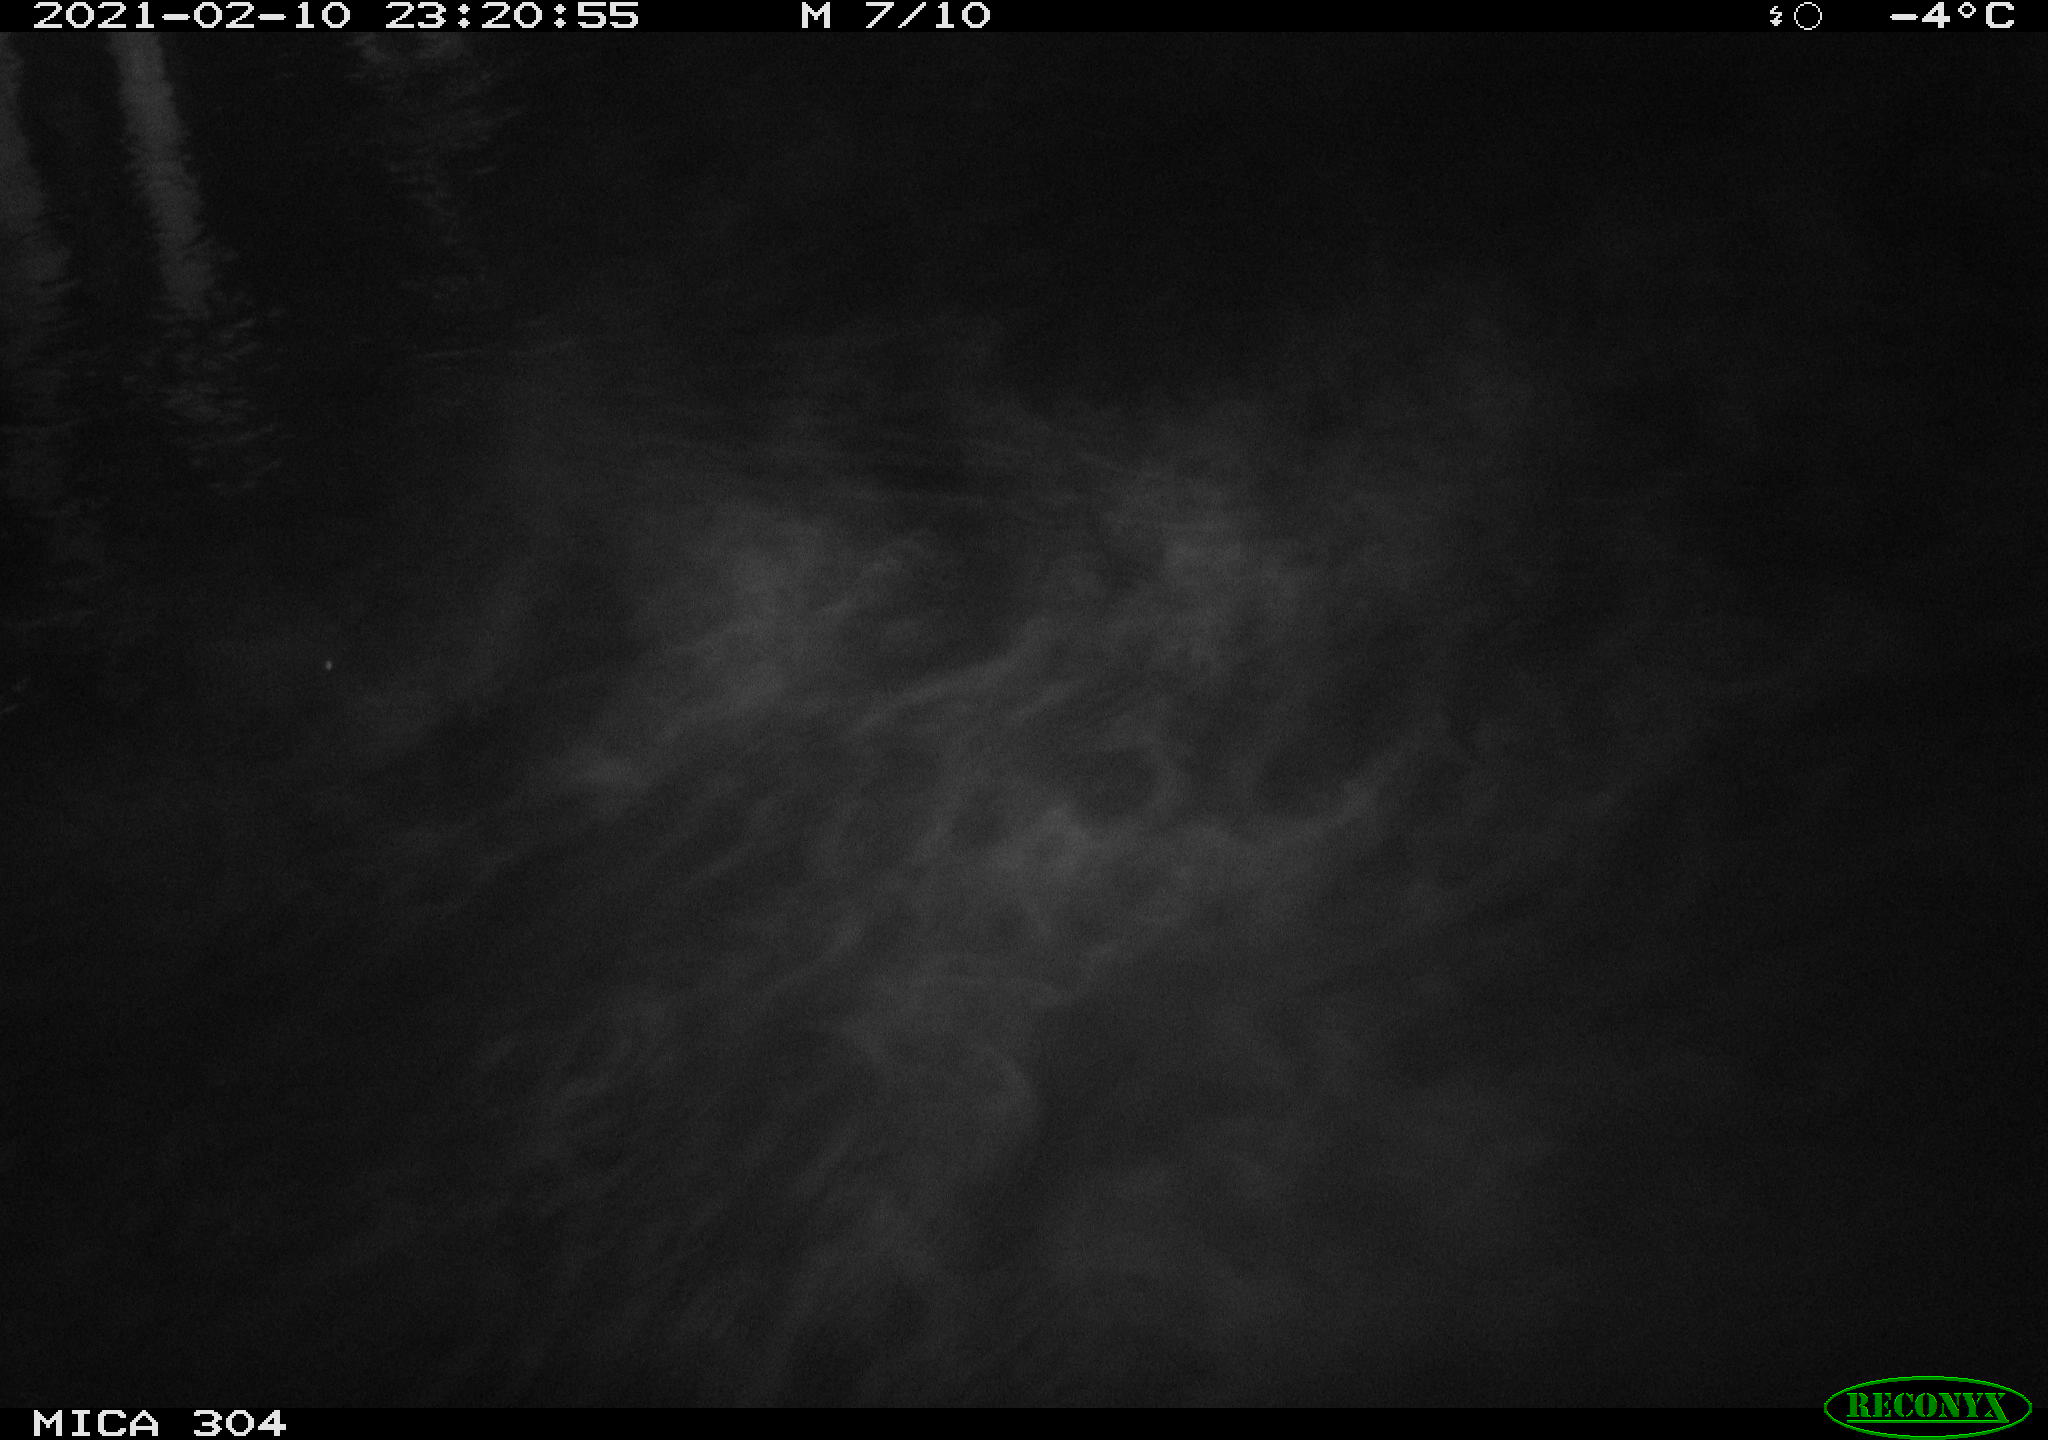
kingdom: Animalia
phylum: Chordata
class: Mammalia
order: Rodentia
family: Muridae
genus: Rattus
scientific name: Rattus norvegicus
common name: Brown rat
